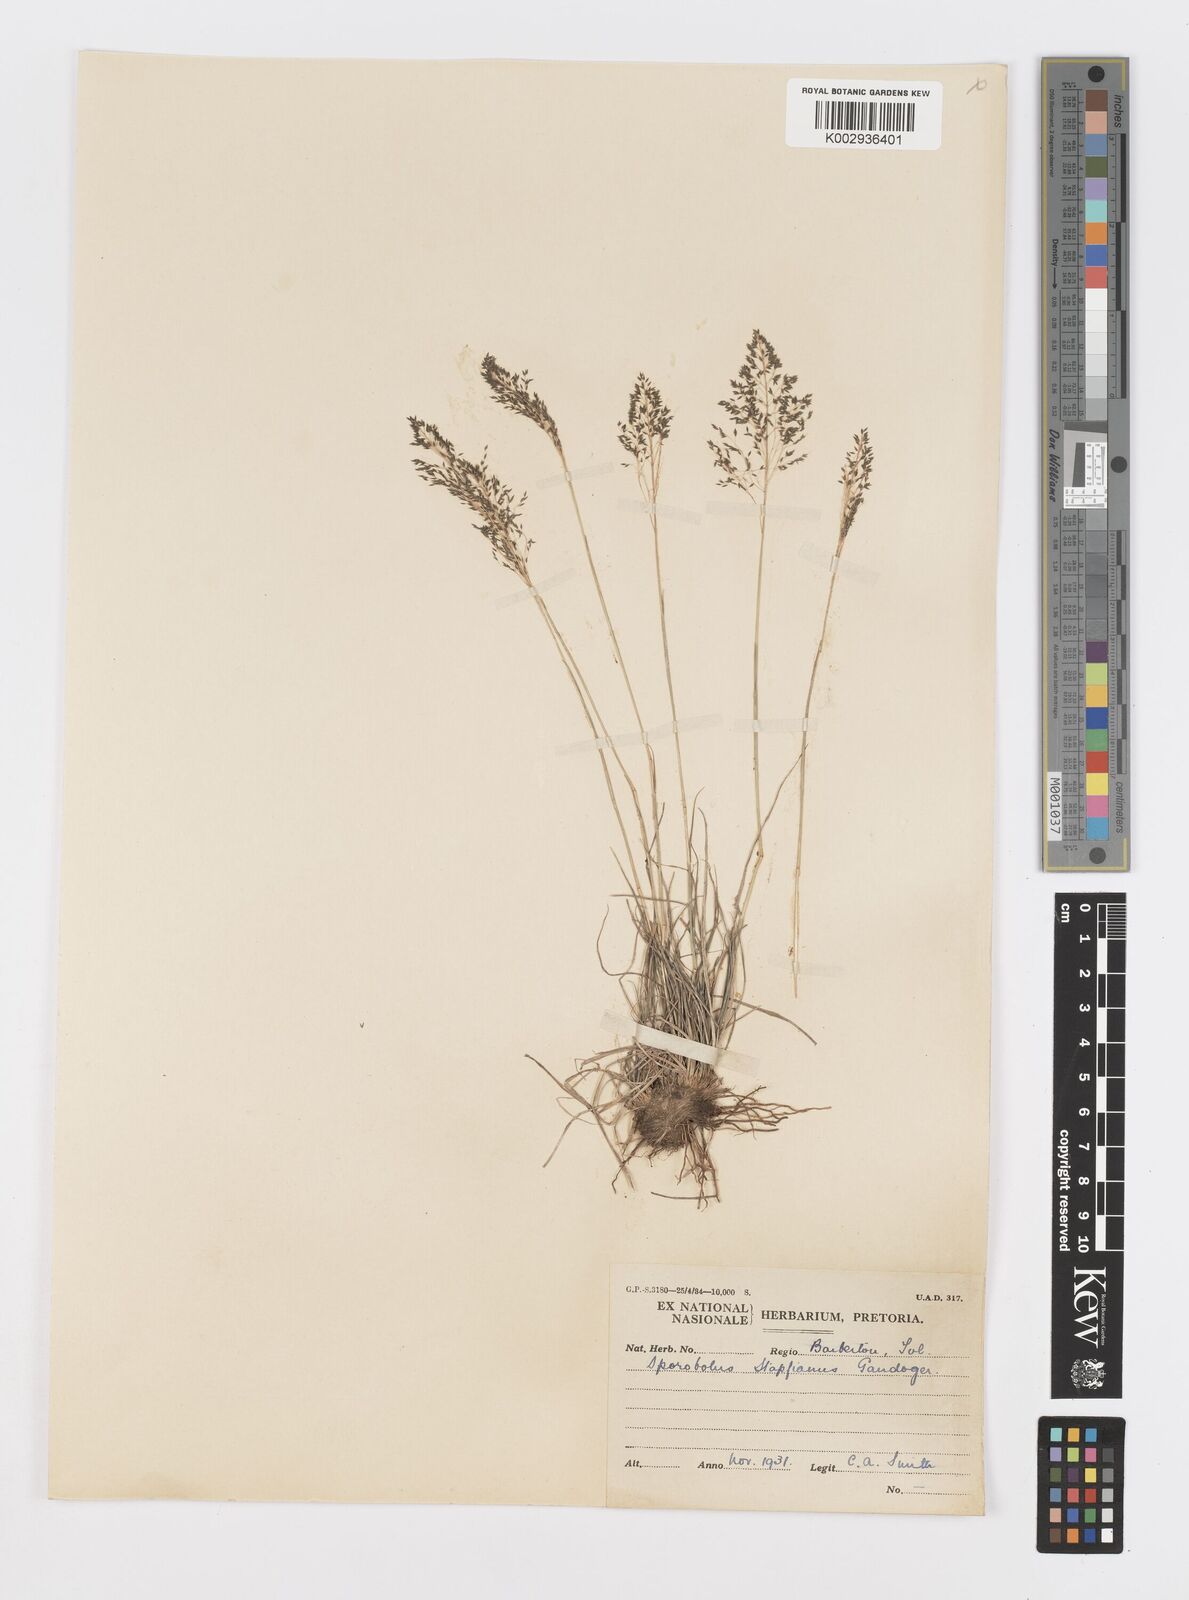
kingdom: Plantae
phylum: Tracheophyta
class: Liliopsida
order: Poales
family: Poaceae
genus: Sporobolus
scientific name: Sporobolus stapfianus
